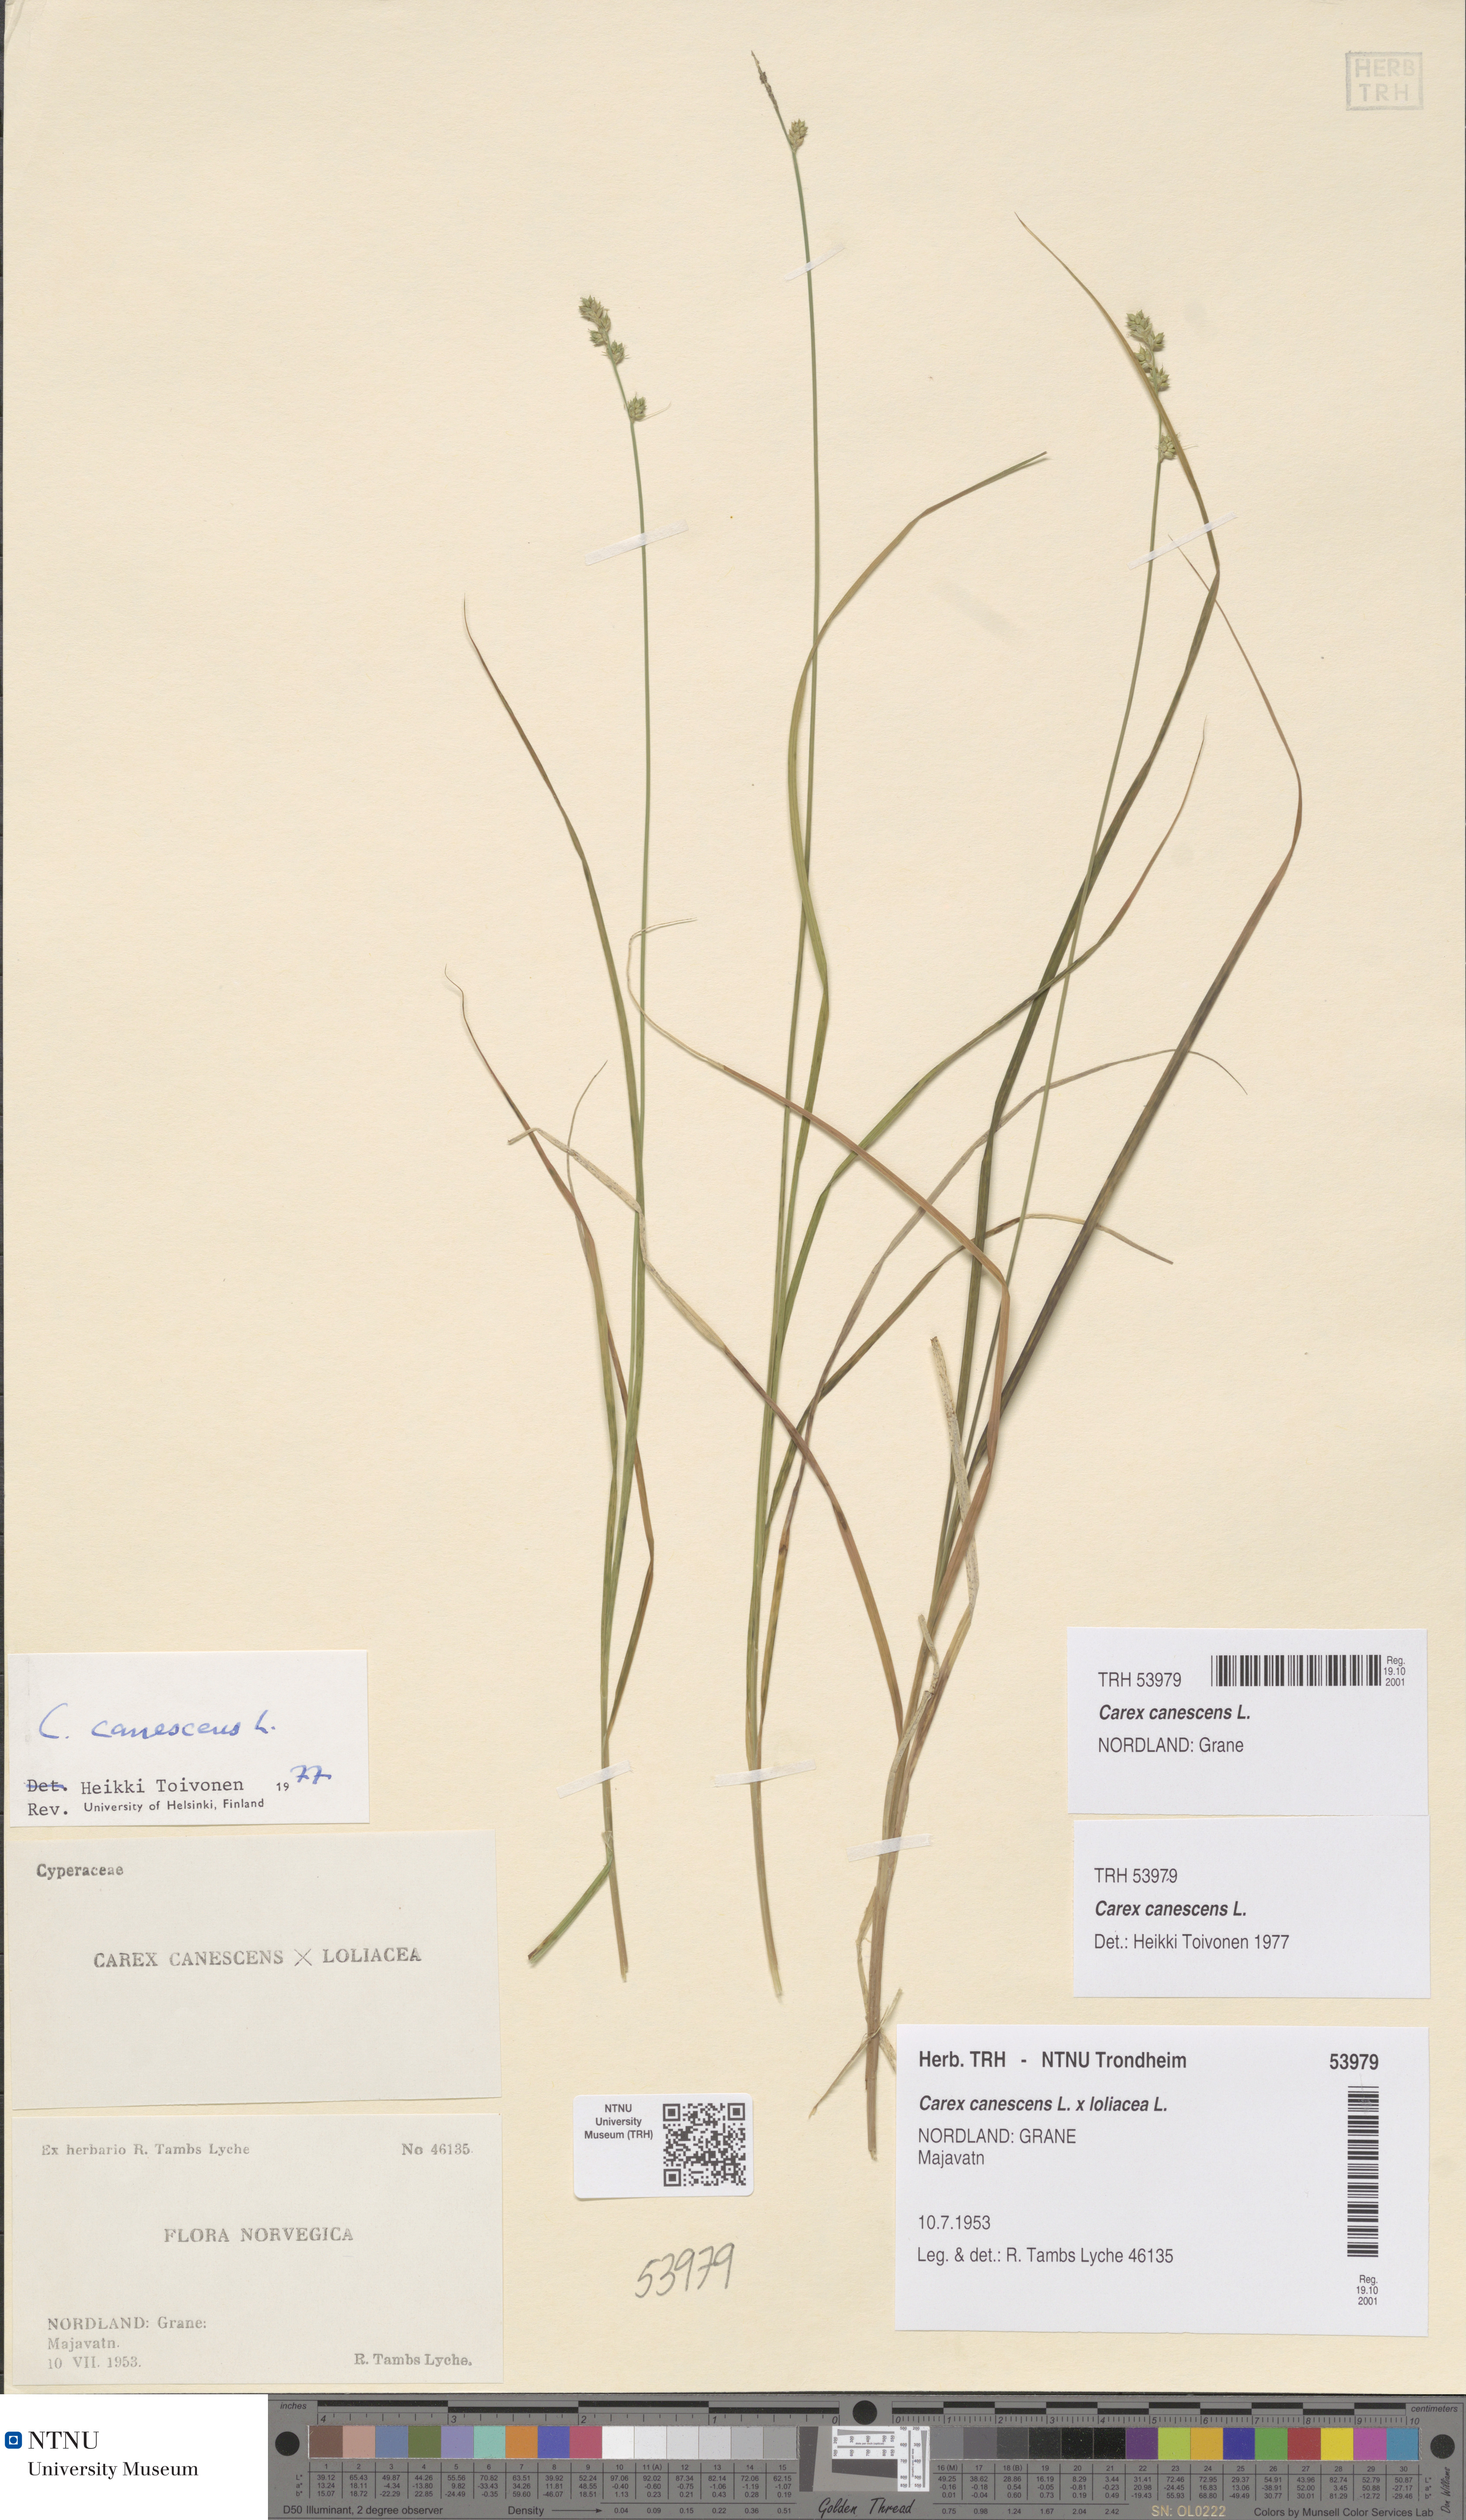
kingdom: Plantae
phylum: Tracheophyta
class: Liliopsida
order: Poales
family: Cyperaceae
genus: Carex
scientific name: Carex canescens
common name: White sedge
